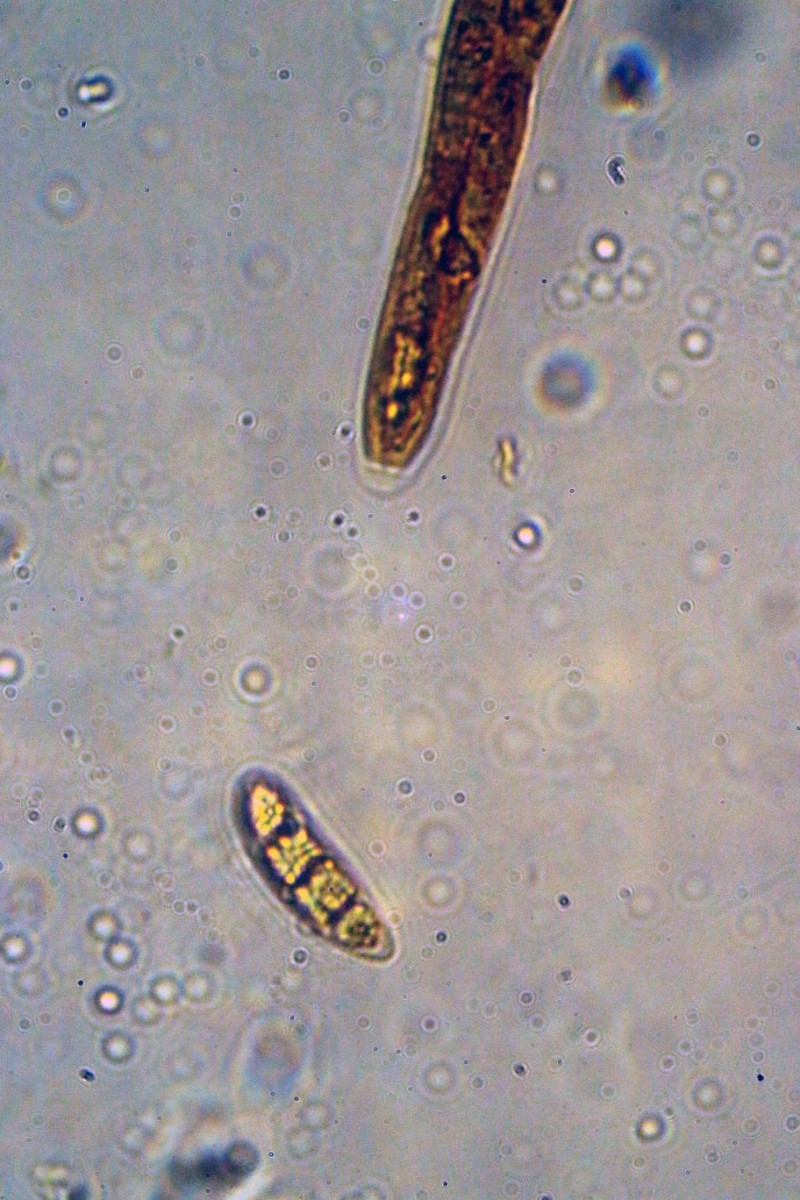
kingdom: Plantae
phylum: Bryophyta
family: Dothideomycetes
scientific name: Dothideomycetes
